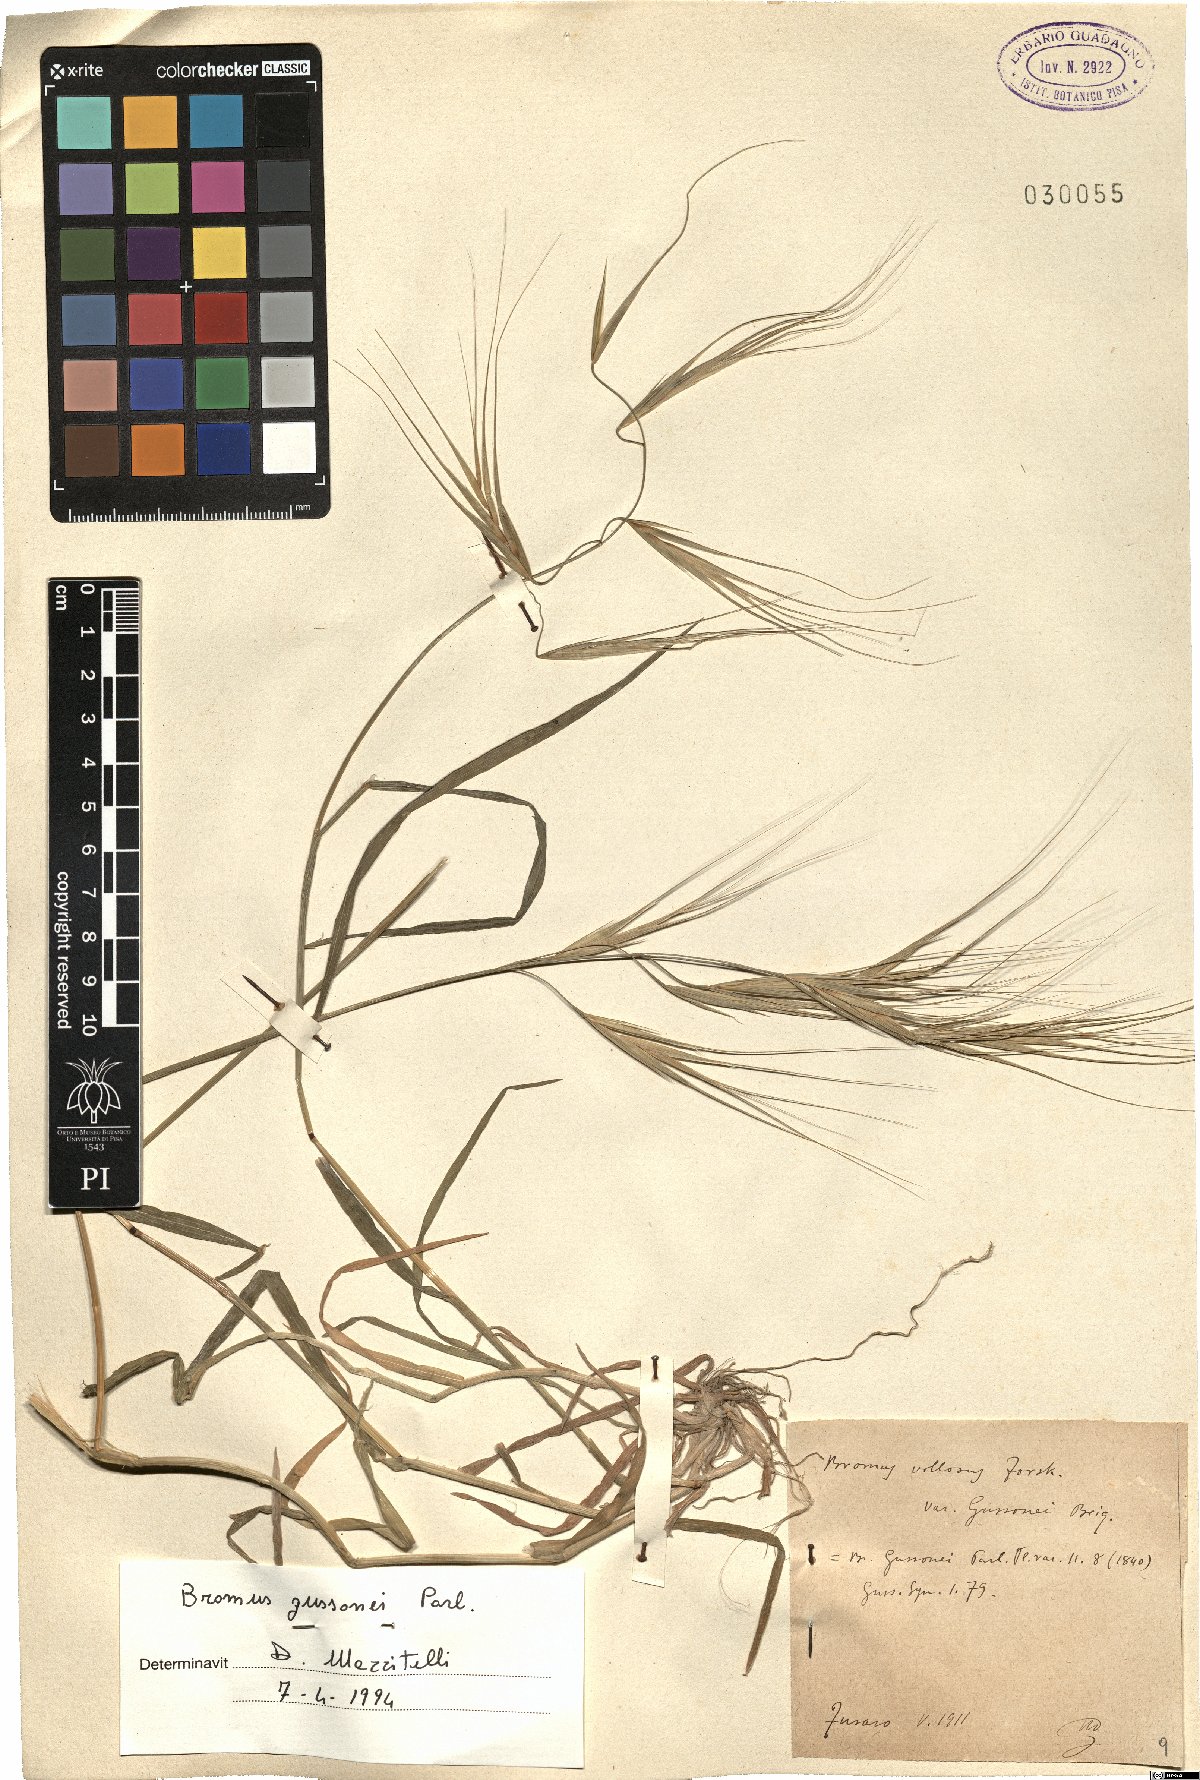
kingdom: Plantae
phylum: Tracheophyta
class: Liliopsida
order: Poales
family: Poaceae
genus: Bromus
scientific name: Bromus diandrus
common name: Ripgut brome
